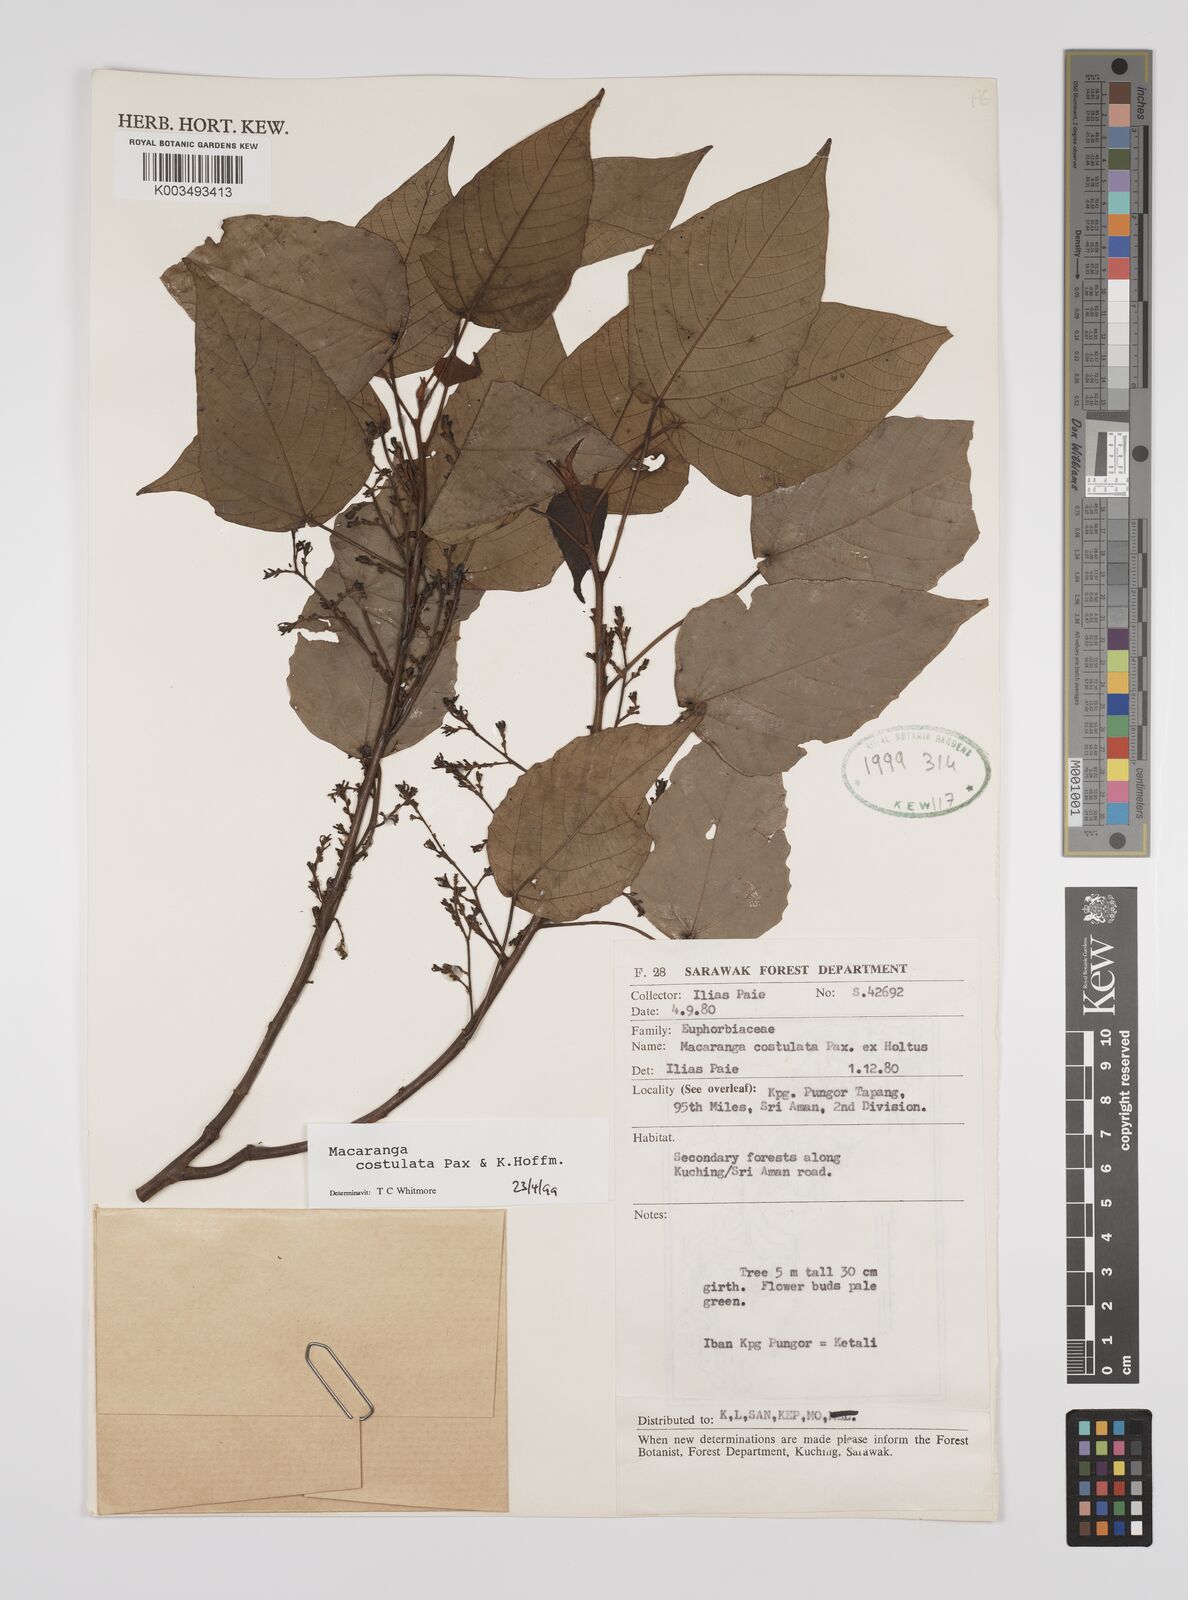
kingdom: Plantae
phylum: Tracheophyta
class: Magnoliopsida
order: Malpighiales
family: Euphorbiaceae
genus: Macaranga
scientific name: Macaranga costulata
